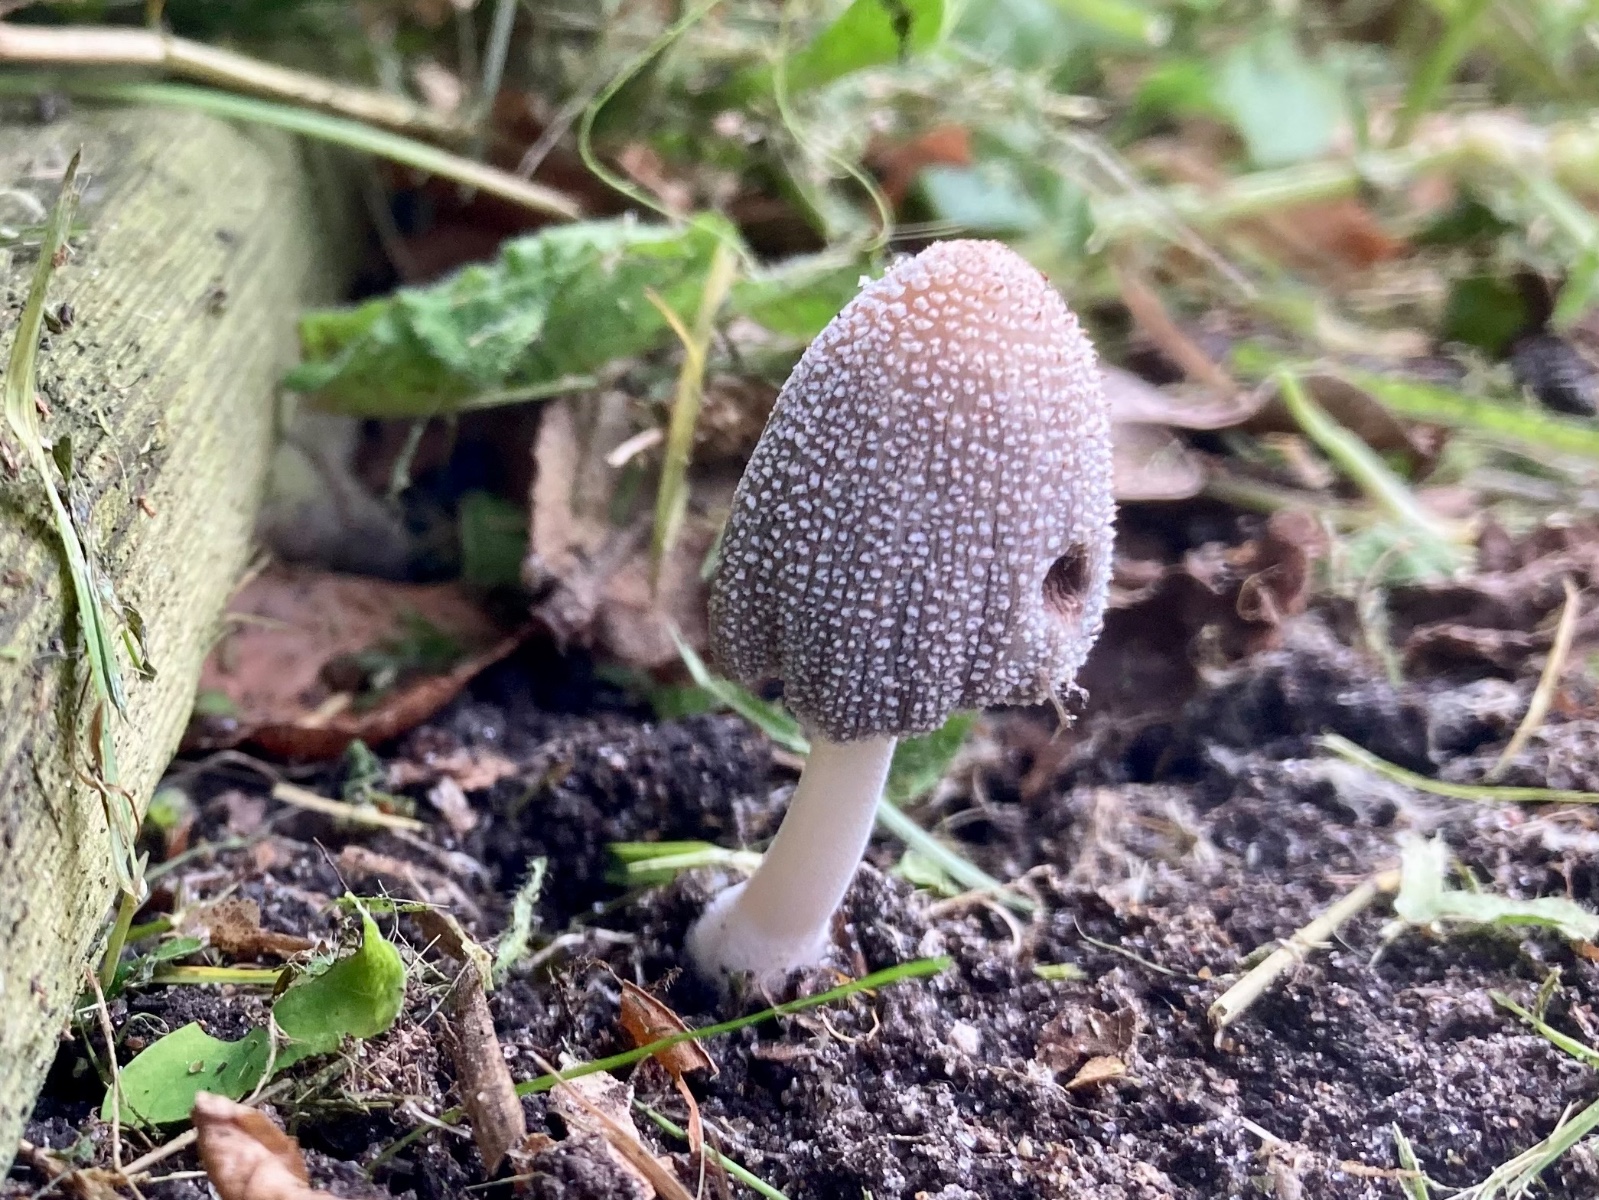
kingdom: Fungi
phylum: Basidiomycota
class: Agaricomycetes
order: Agaricales
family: Psathyrellaceae
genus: Coprinellus
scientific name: Coprinellus
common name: blækhat
